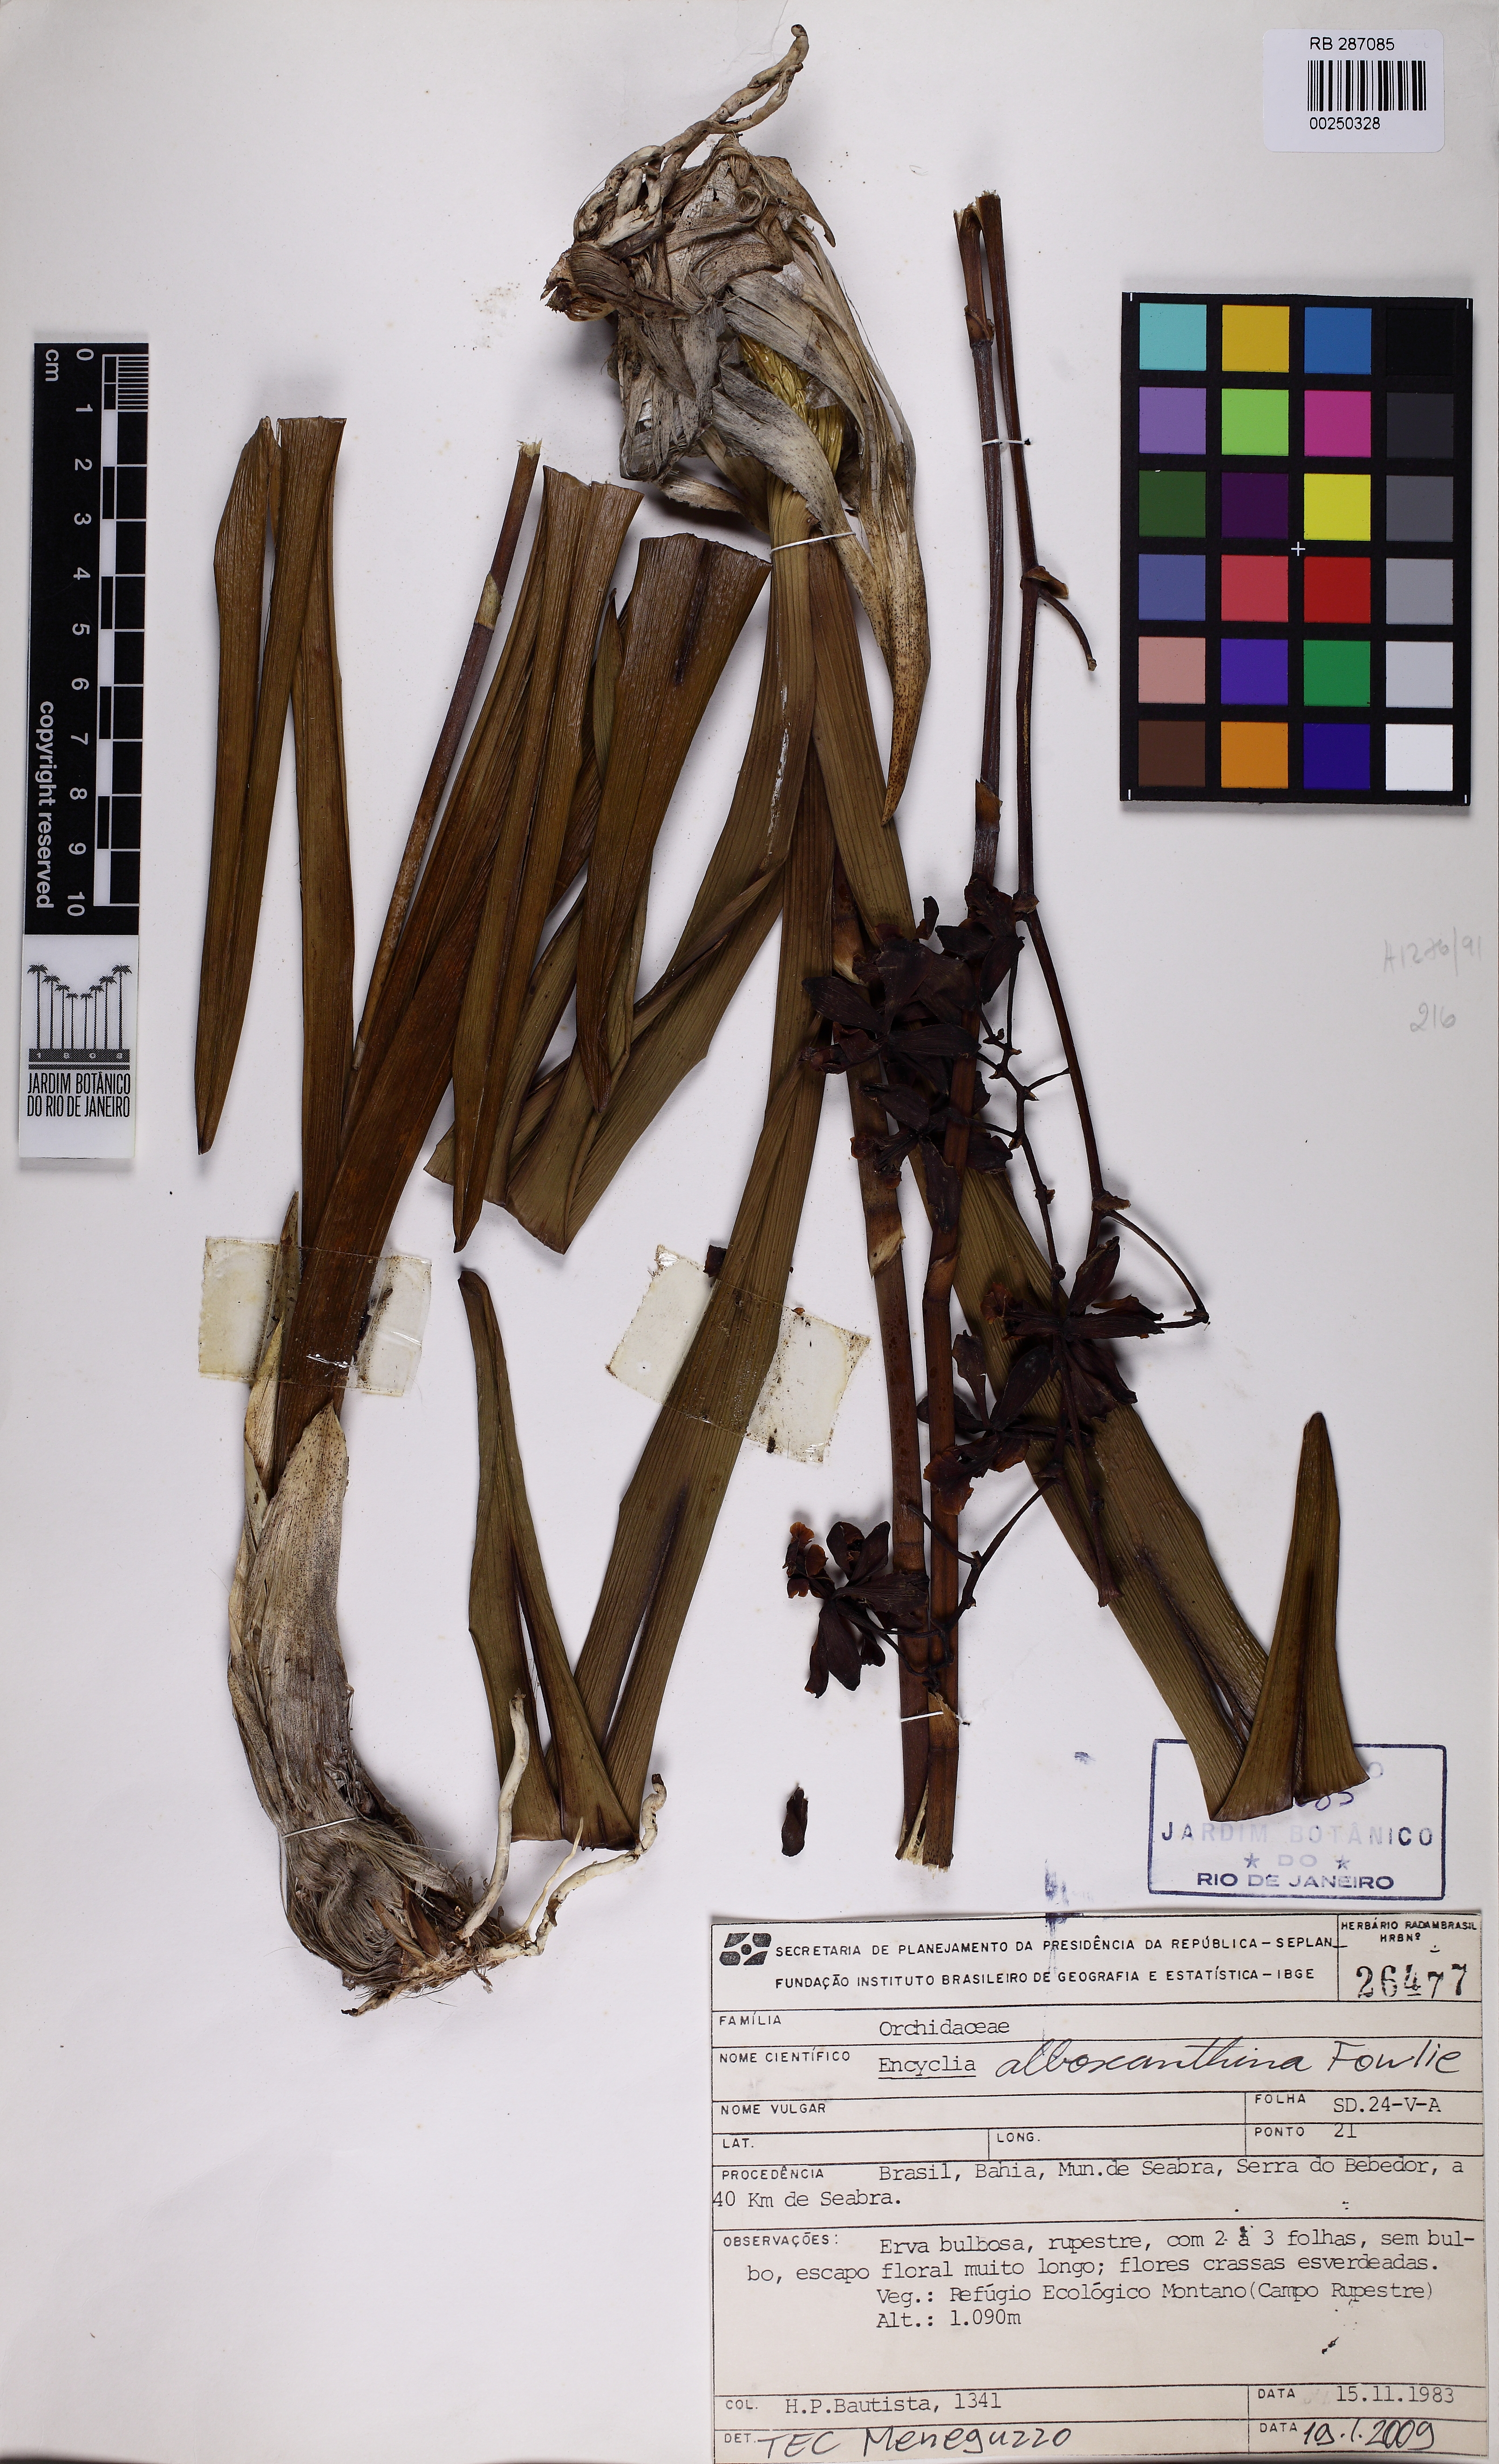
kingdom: Plantae
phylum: Tracheophyta
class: Liliopsida
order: Asparagales
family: Orchidaceae
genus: Encyclia
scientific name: Encyclia alboxanthina
